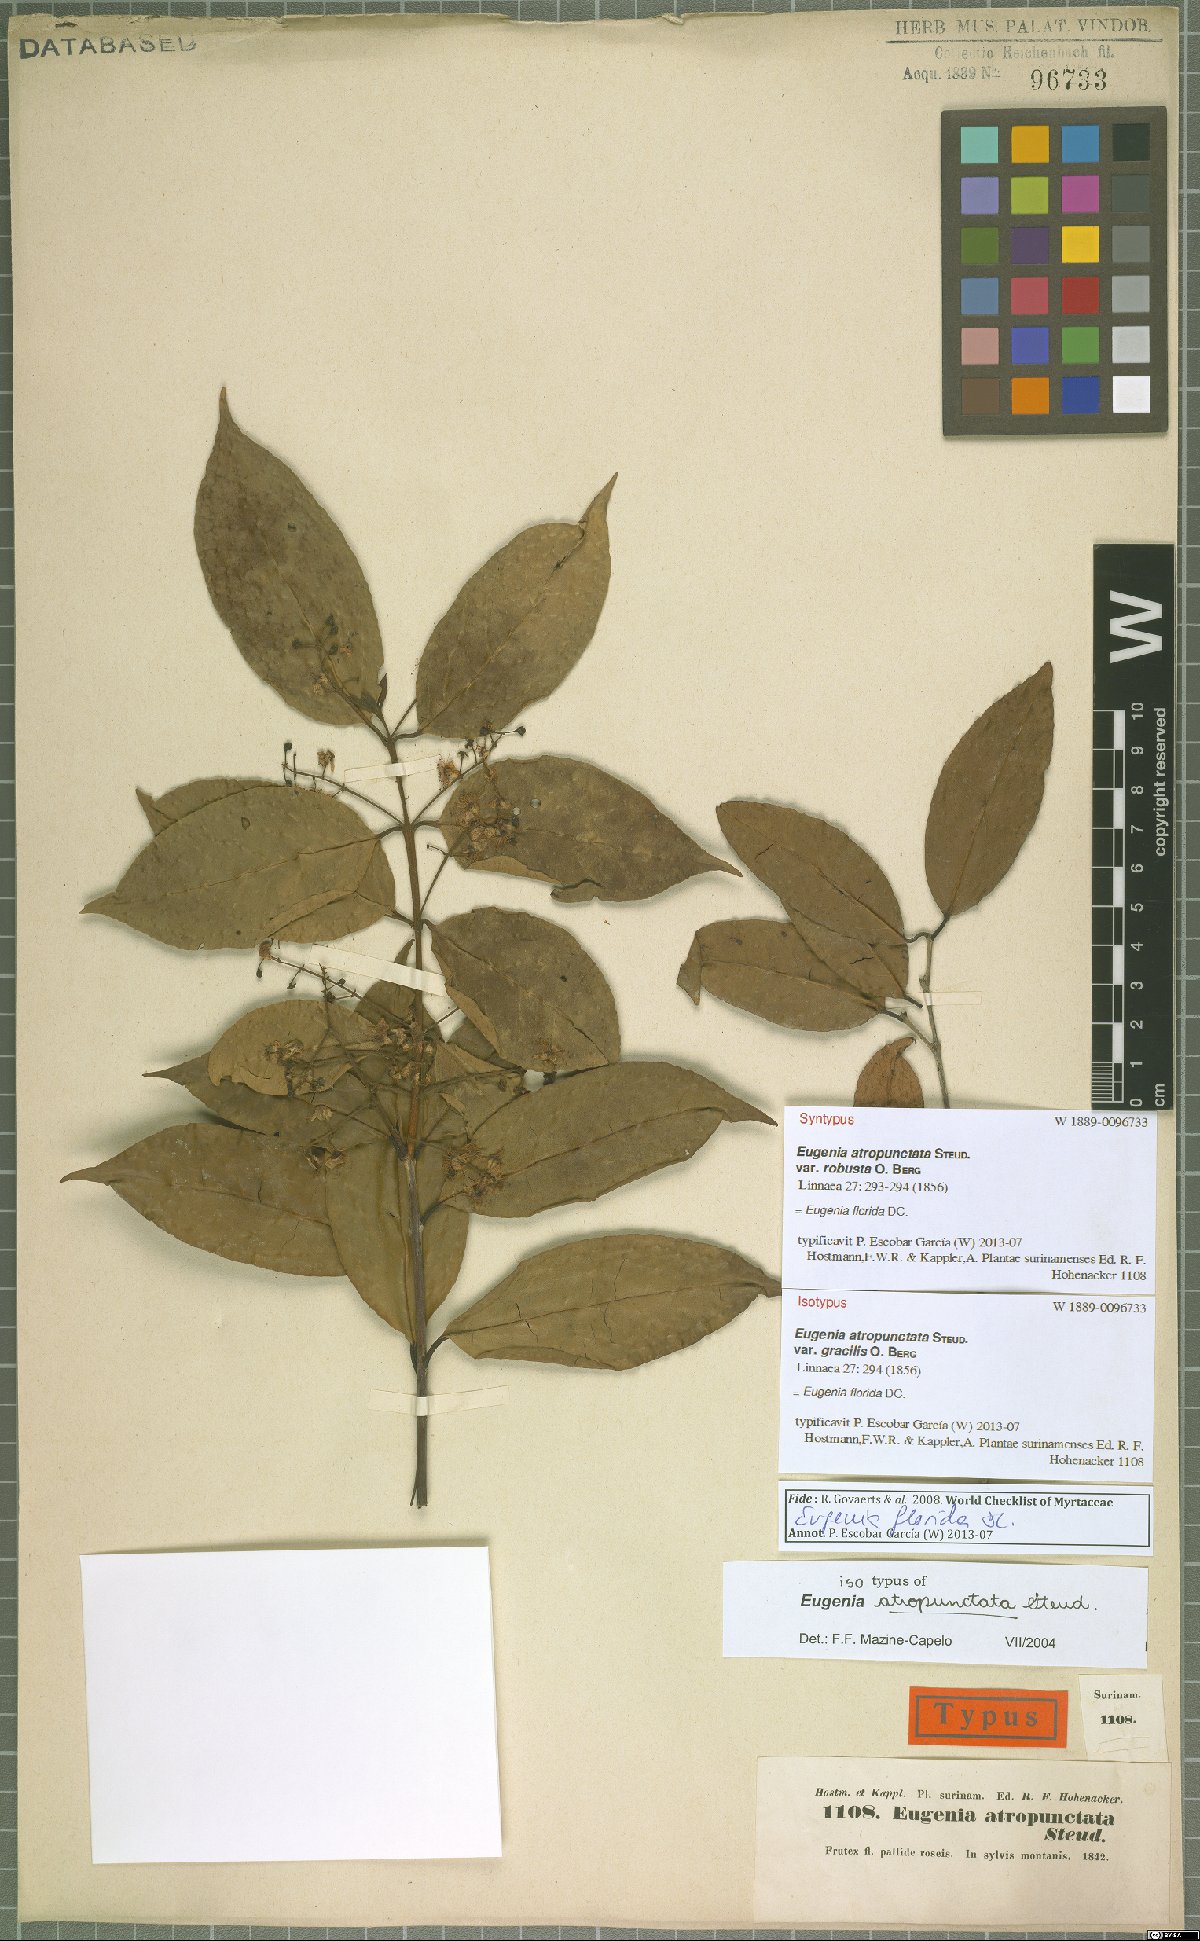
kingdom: Plantae
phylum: Tracheophyta
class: Magnoliopsida
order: Myrtales
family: Myrtaceae
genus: Eugenia
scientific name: Eugenia florida
